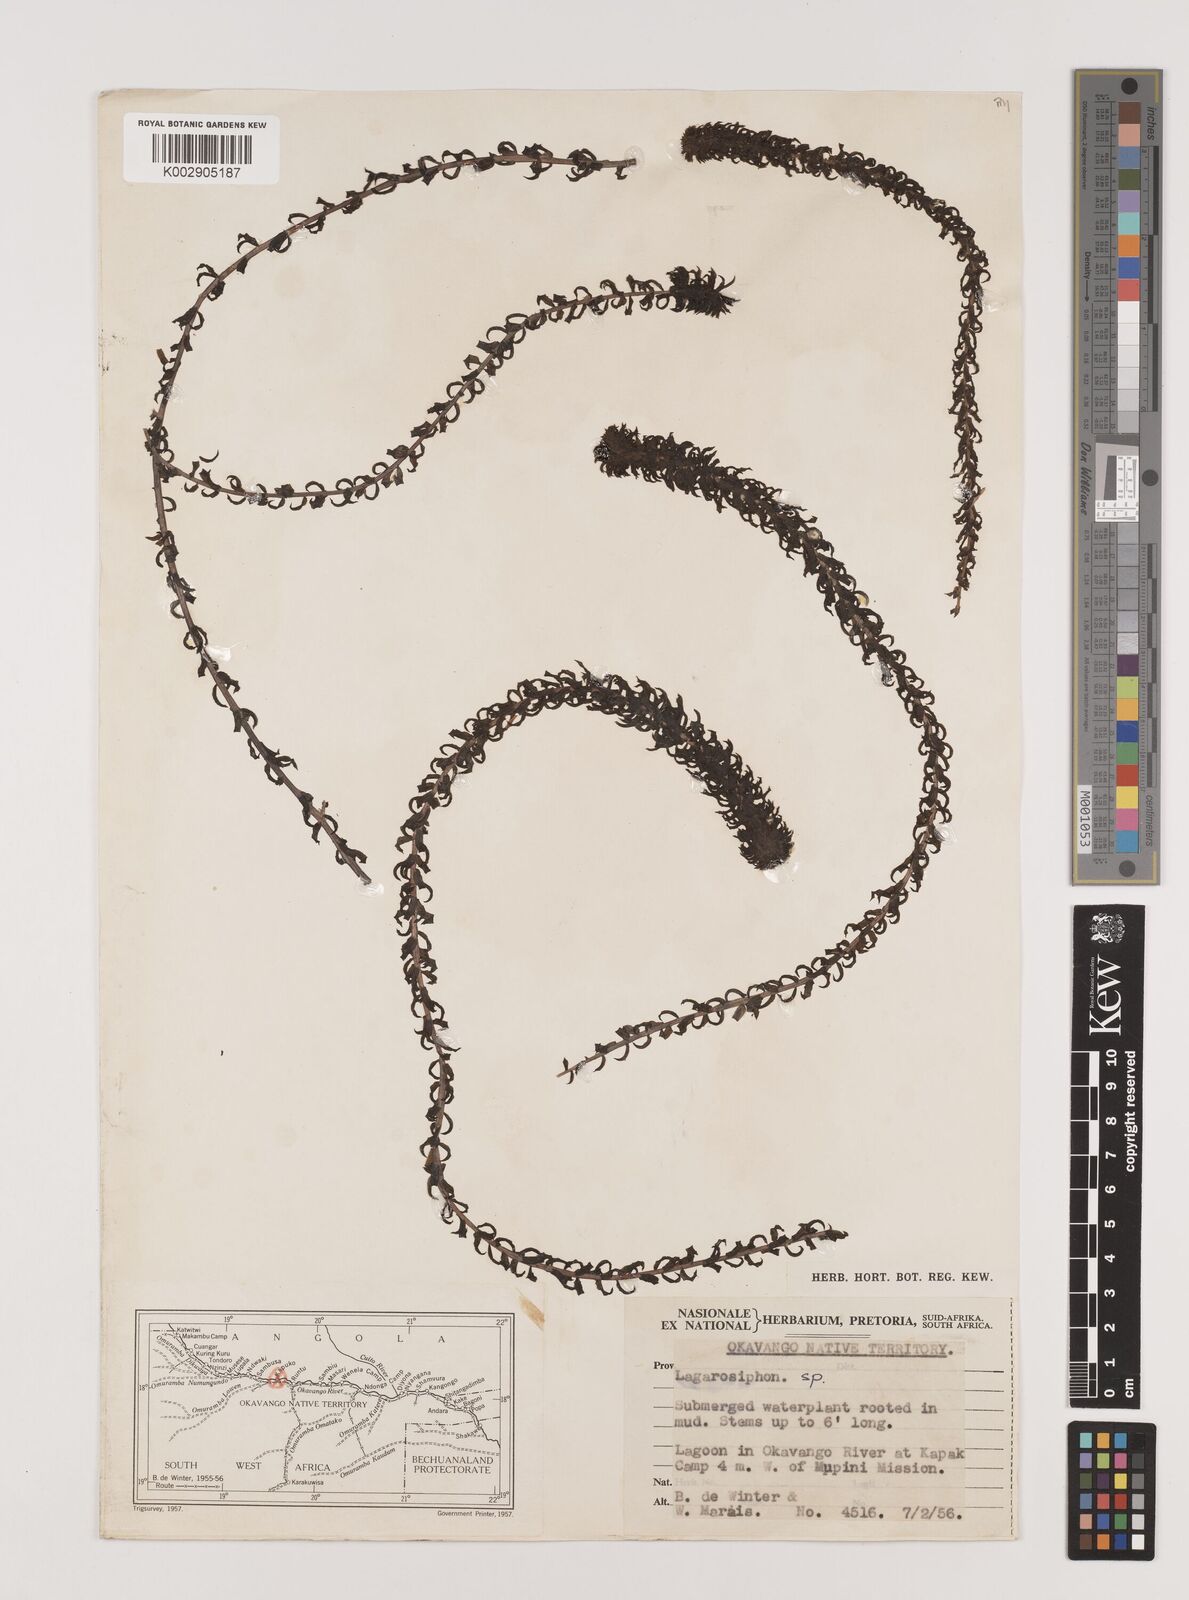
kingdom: Plantae
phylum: Tracheophyta
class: Liliopsida
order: Alismatales
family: Hydrocharitaceae
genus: Lagarosiphon
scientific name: Lagarosiphon
